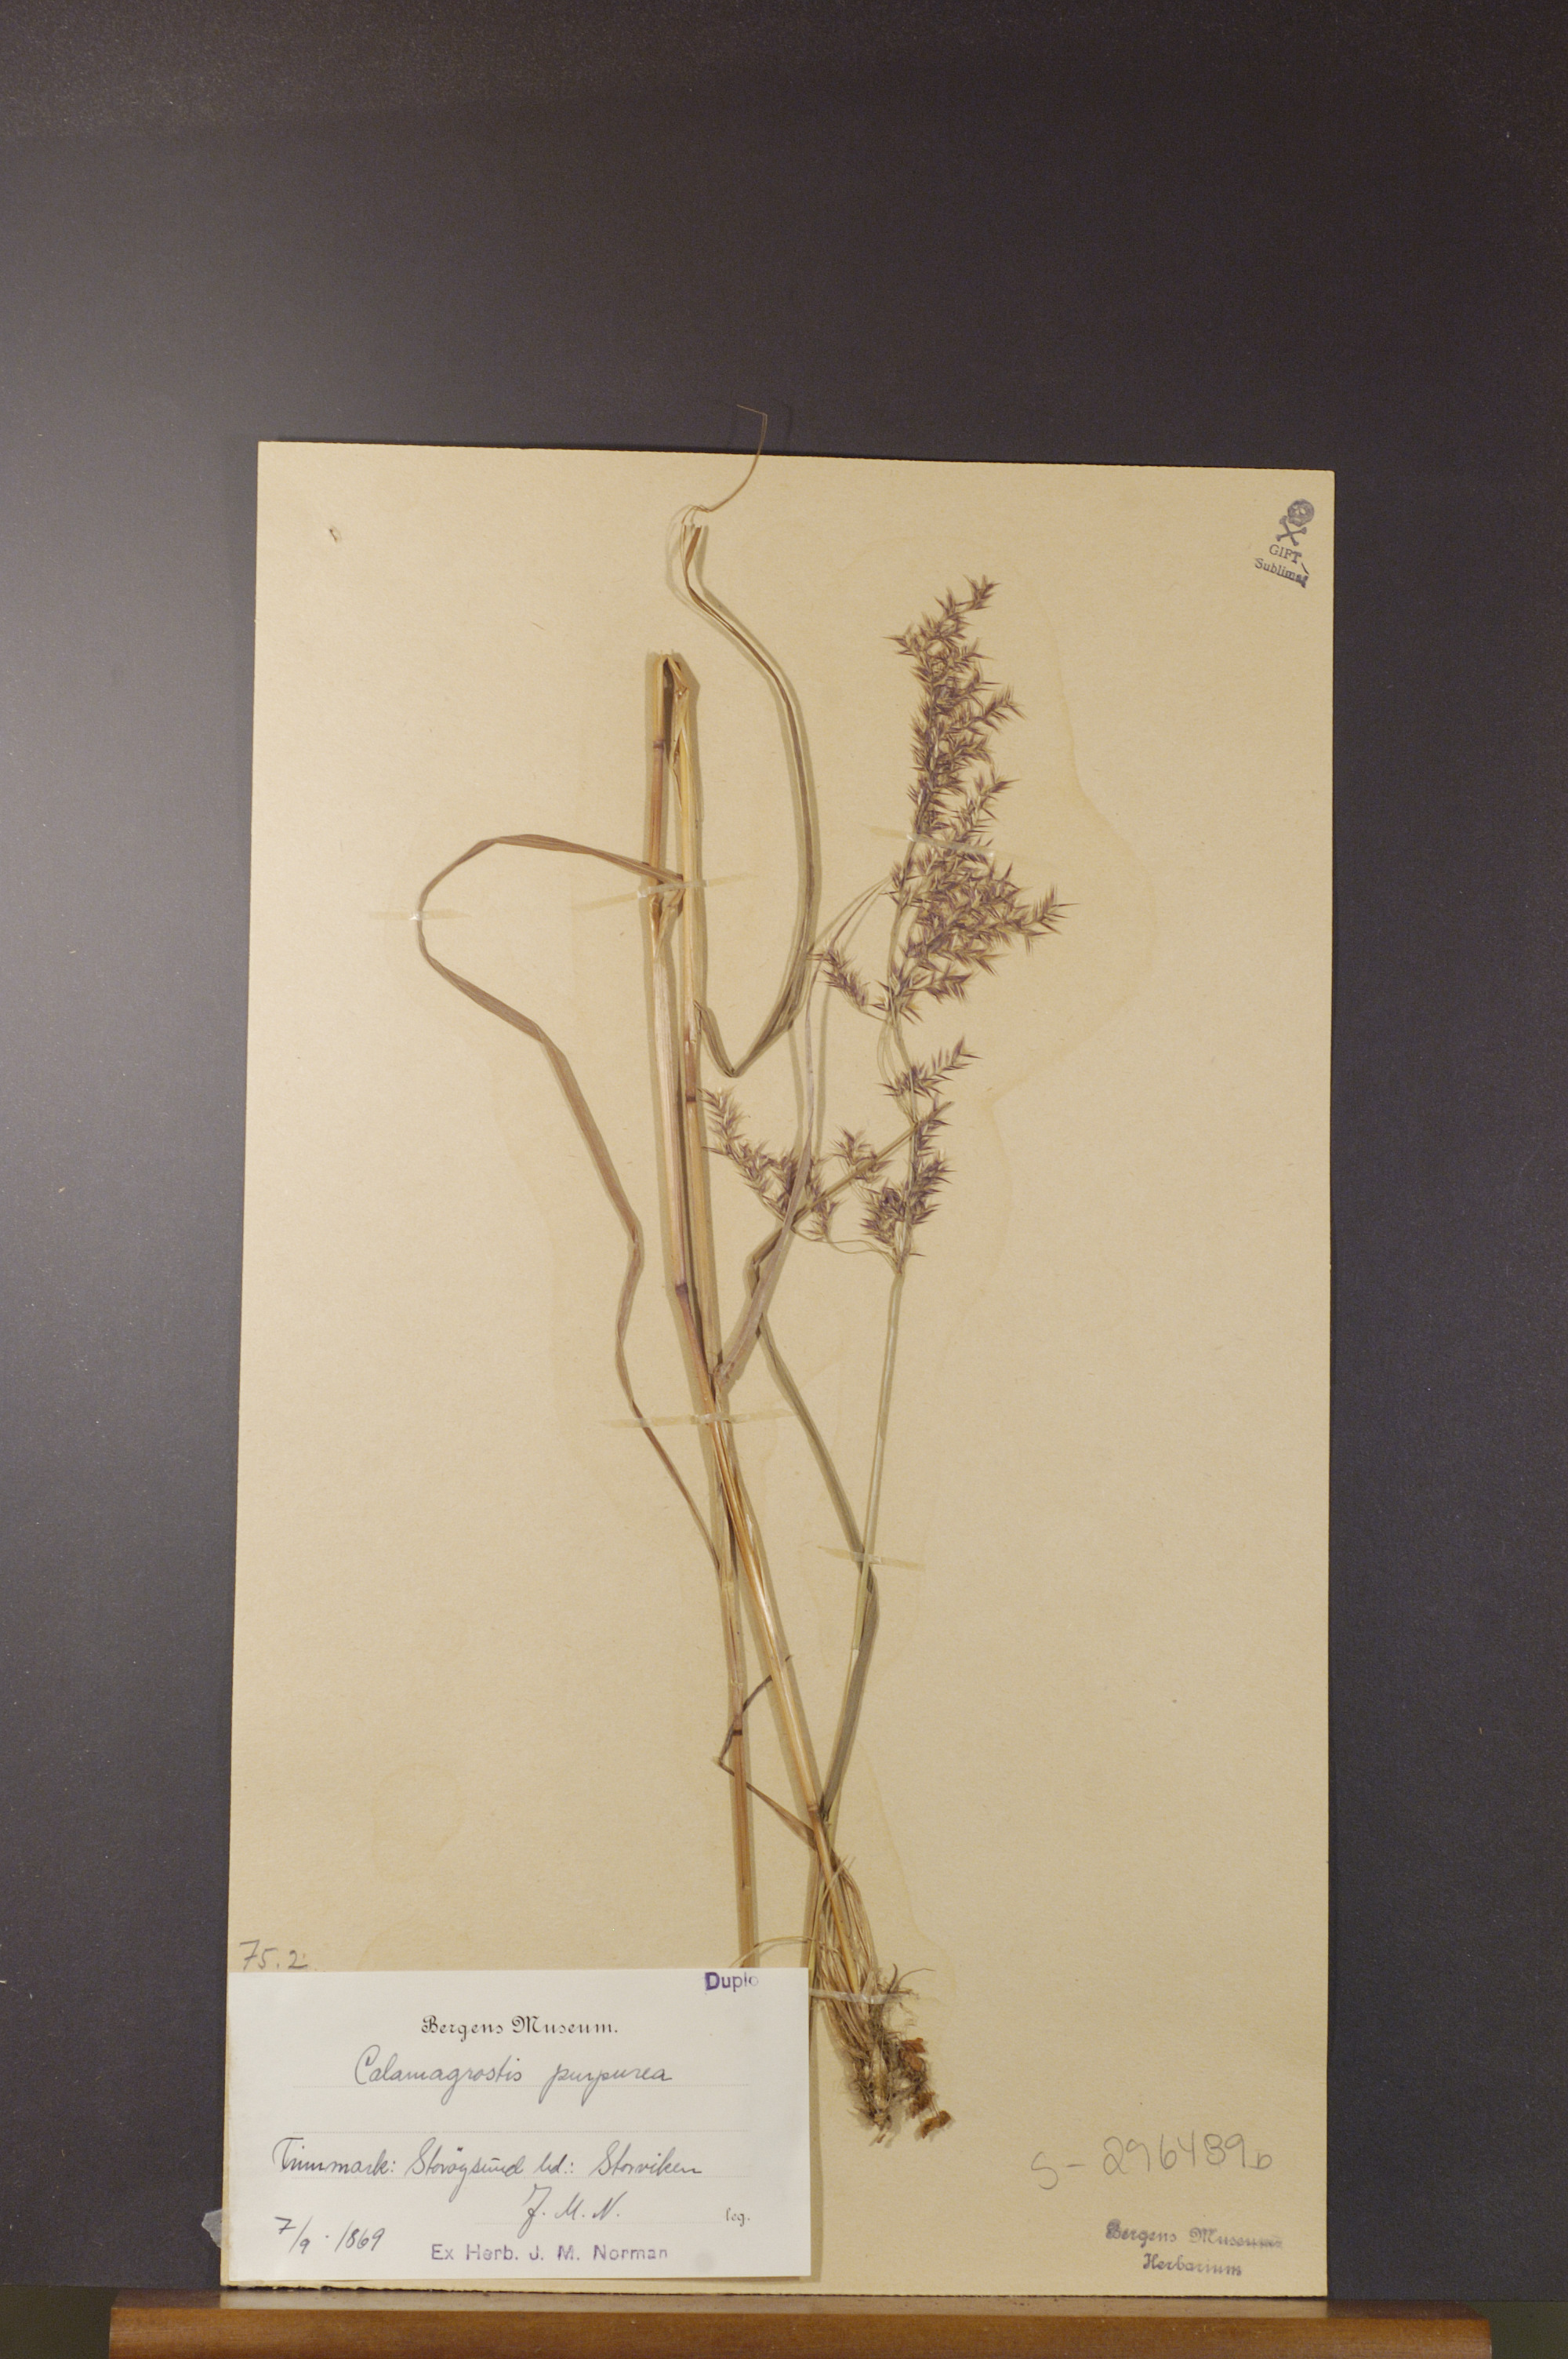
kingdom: Plantae
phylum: Tracheophyta
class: Liliopsida
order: Poales
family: Poaceae
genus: Calamagrostis
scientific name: Calamagrostis purpurea
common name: Scandinavian small-reed
